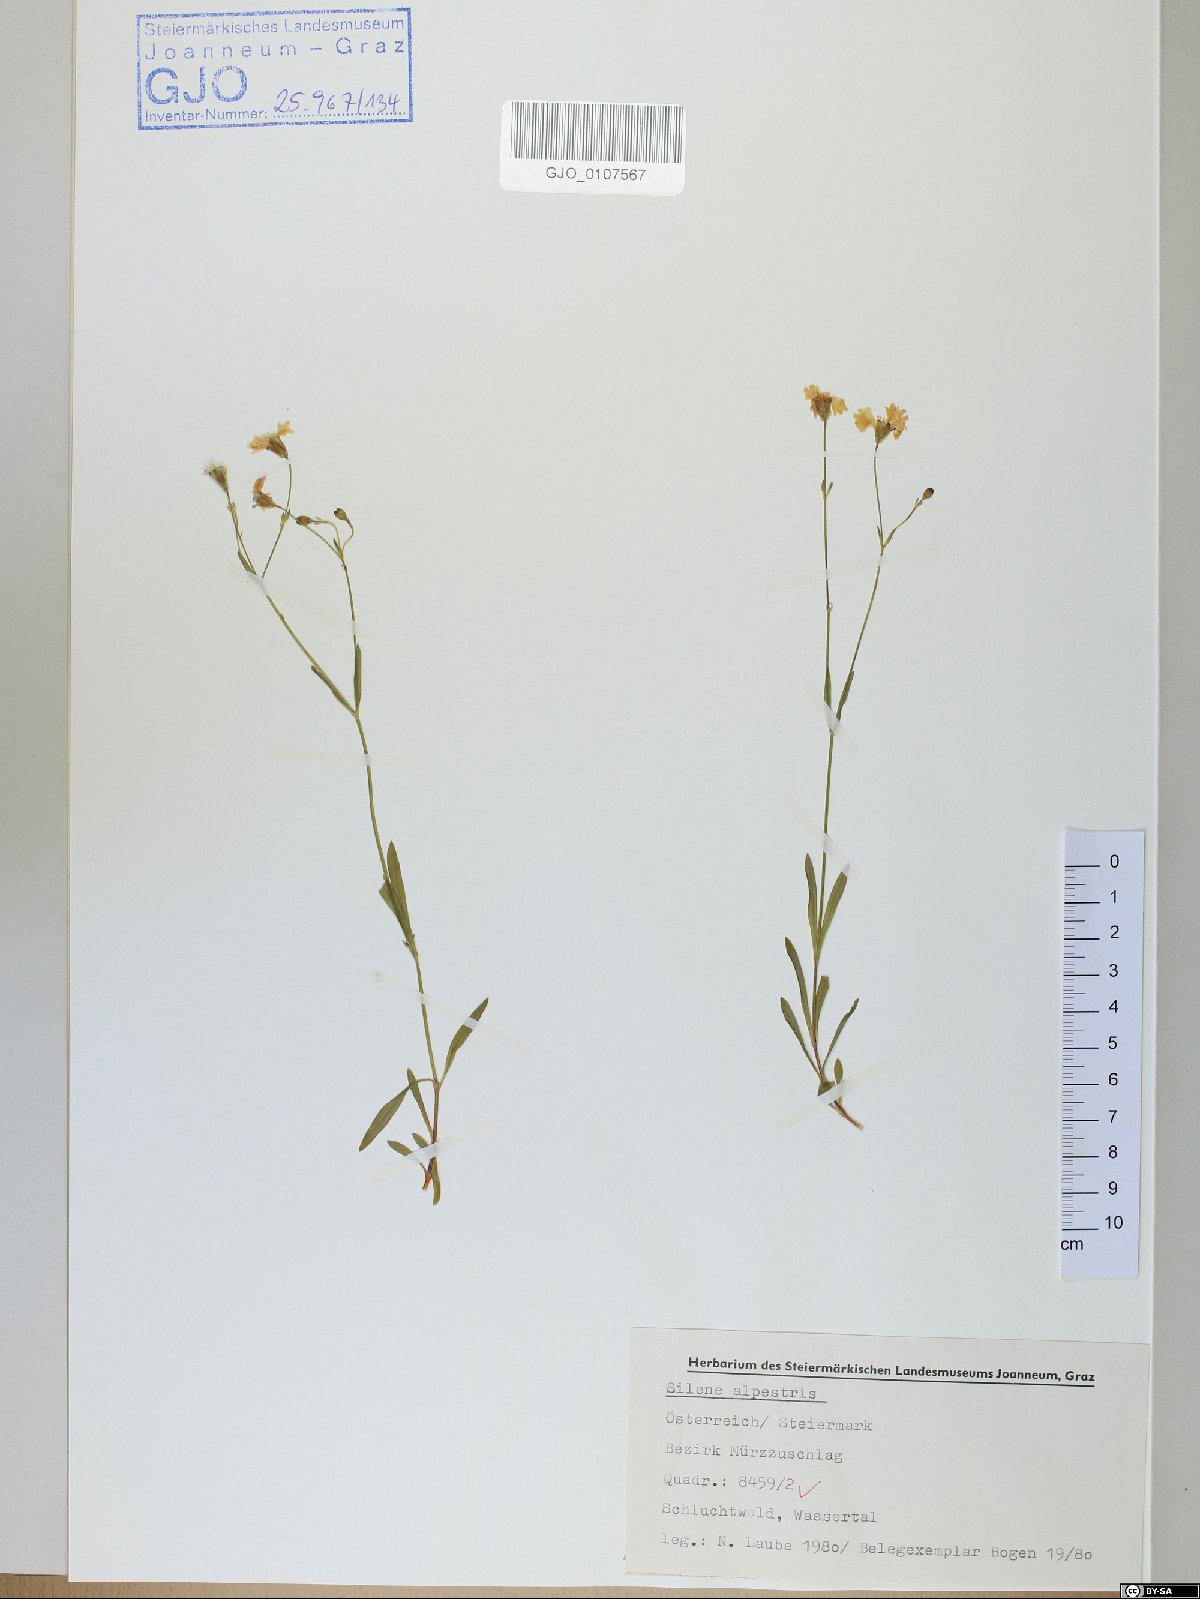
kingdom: Plantae
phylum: Tracheophyta
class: Magnoliopsida
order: Caryophyllales
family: Caryophyllaceae
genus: Heliosperma
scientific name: Heliosperma alpestre
